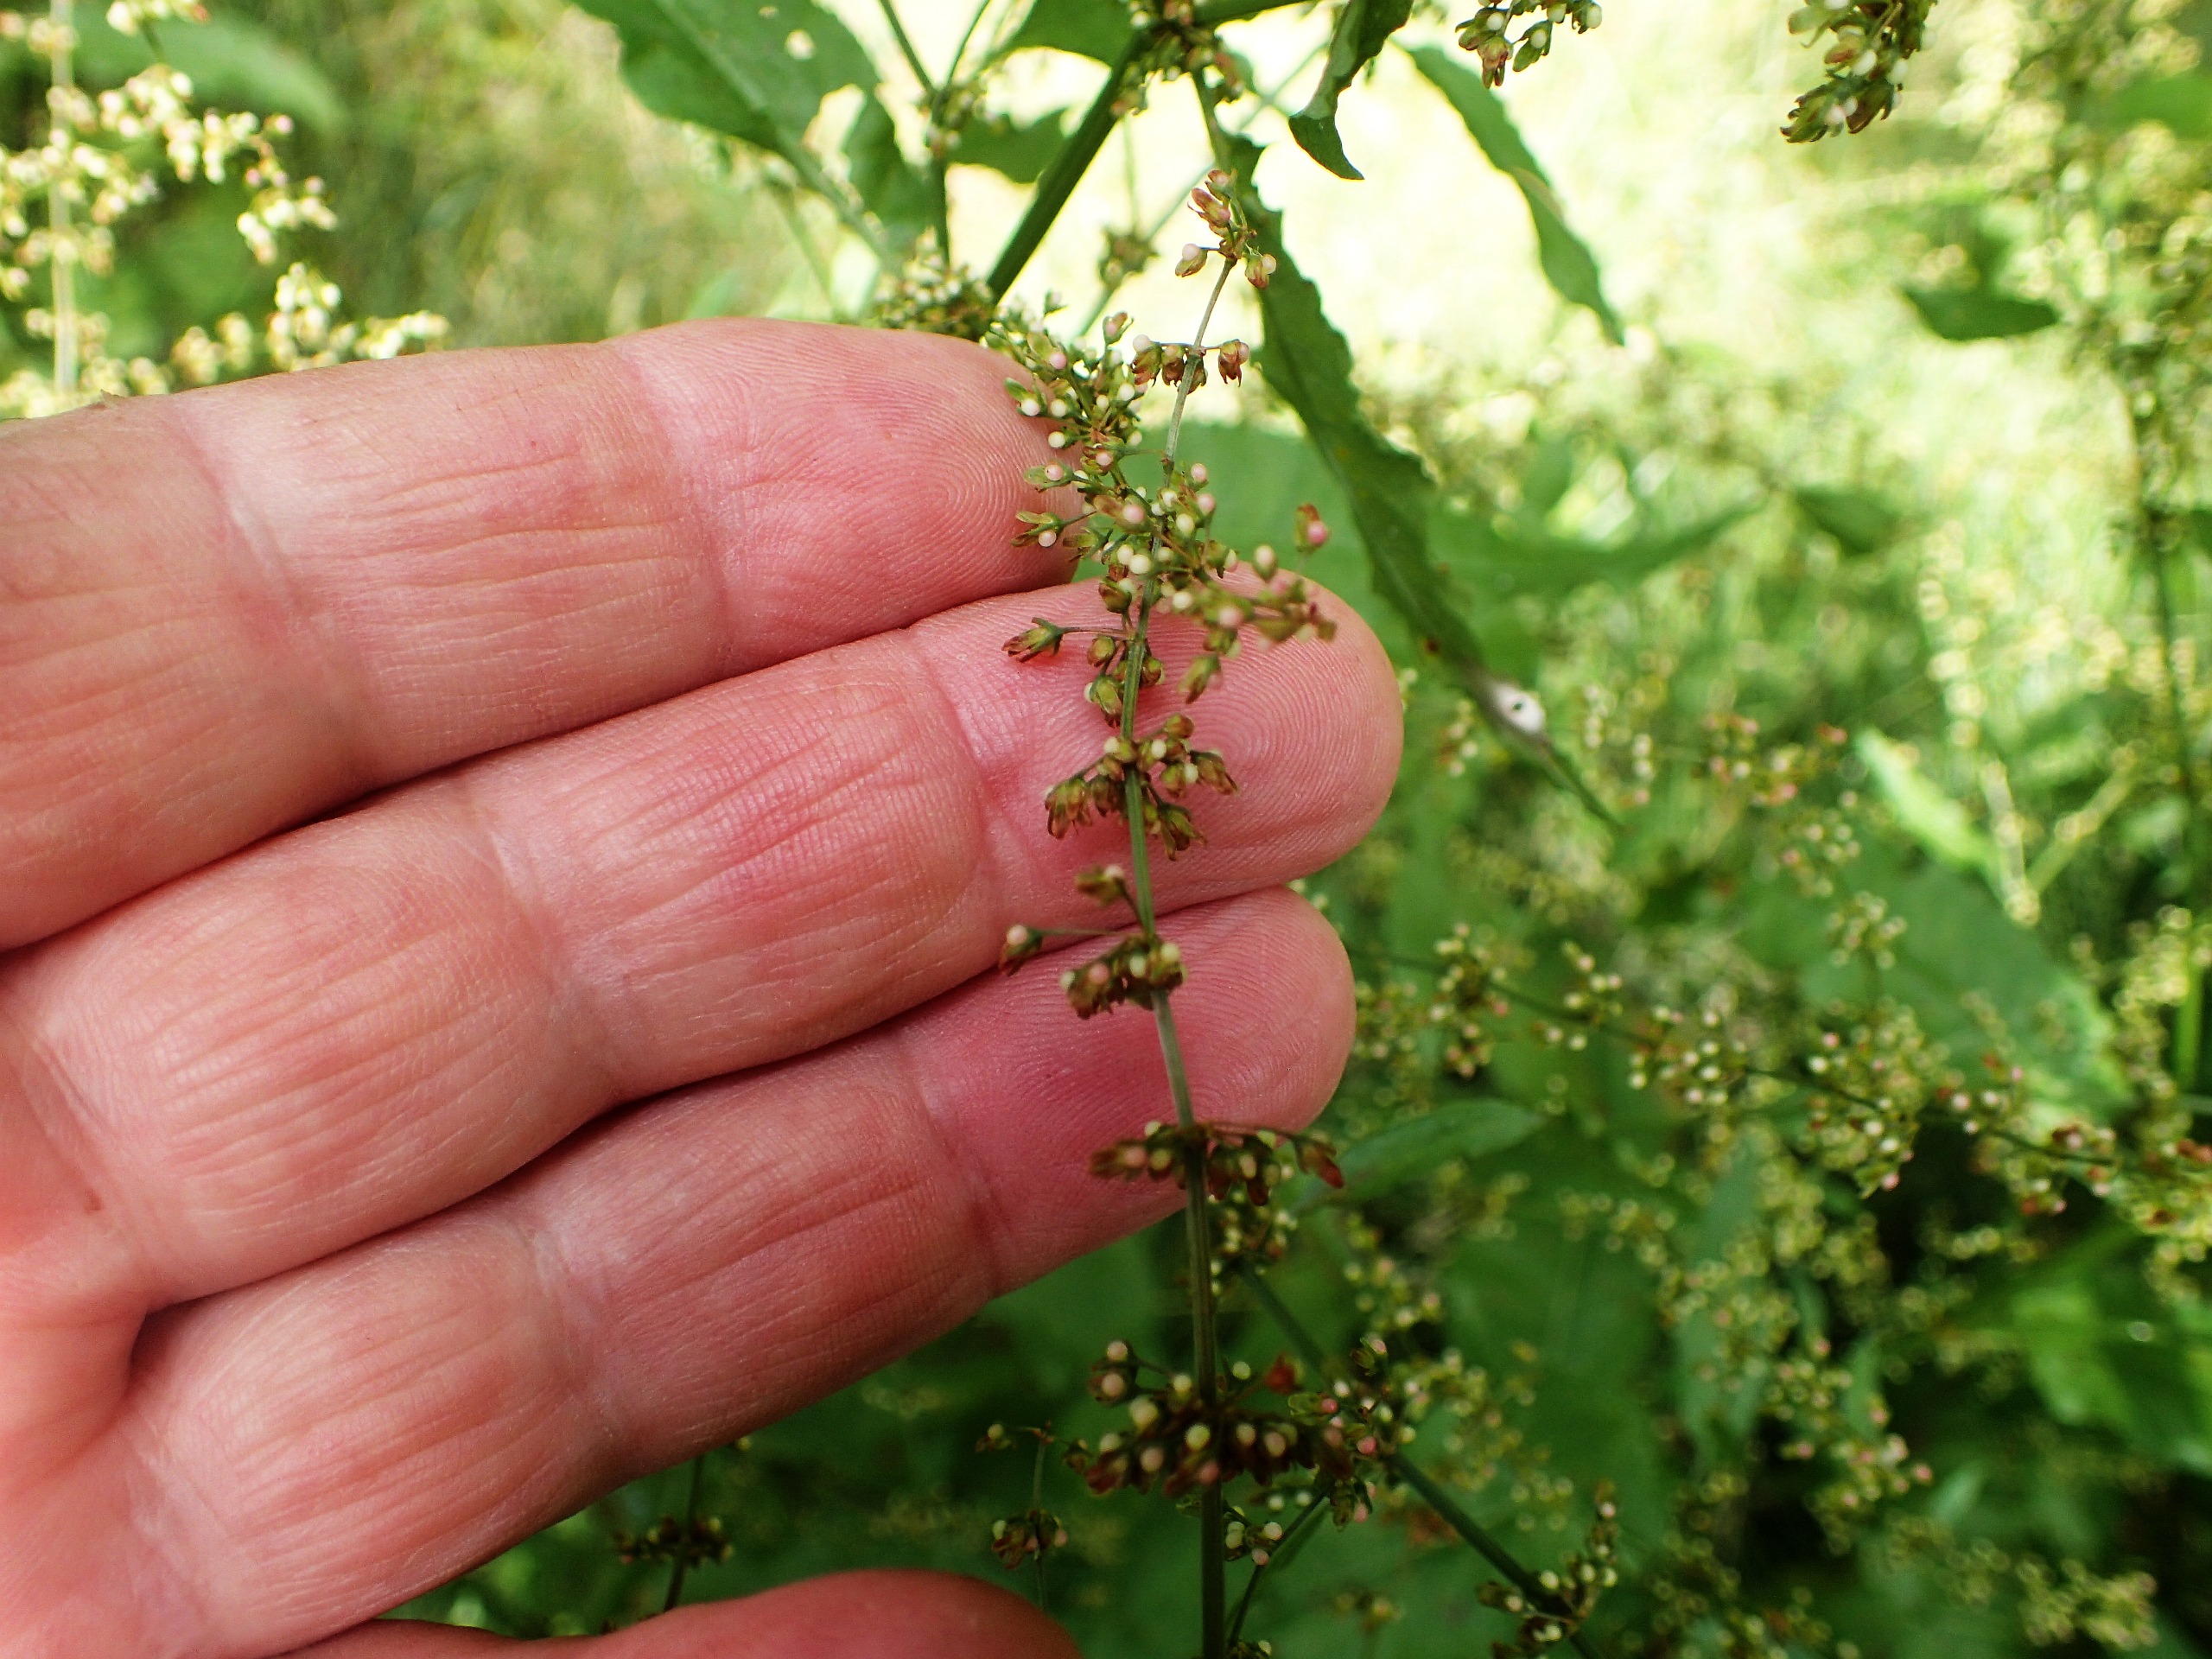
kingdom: Plantae
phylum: Tracheophyta
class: Magnoliopsida
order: Caryophyllales
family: Polygonaceae
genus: Rumex
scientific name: Rumex sanguineus
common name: Skov-skræppe
